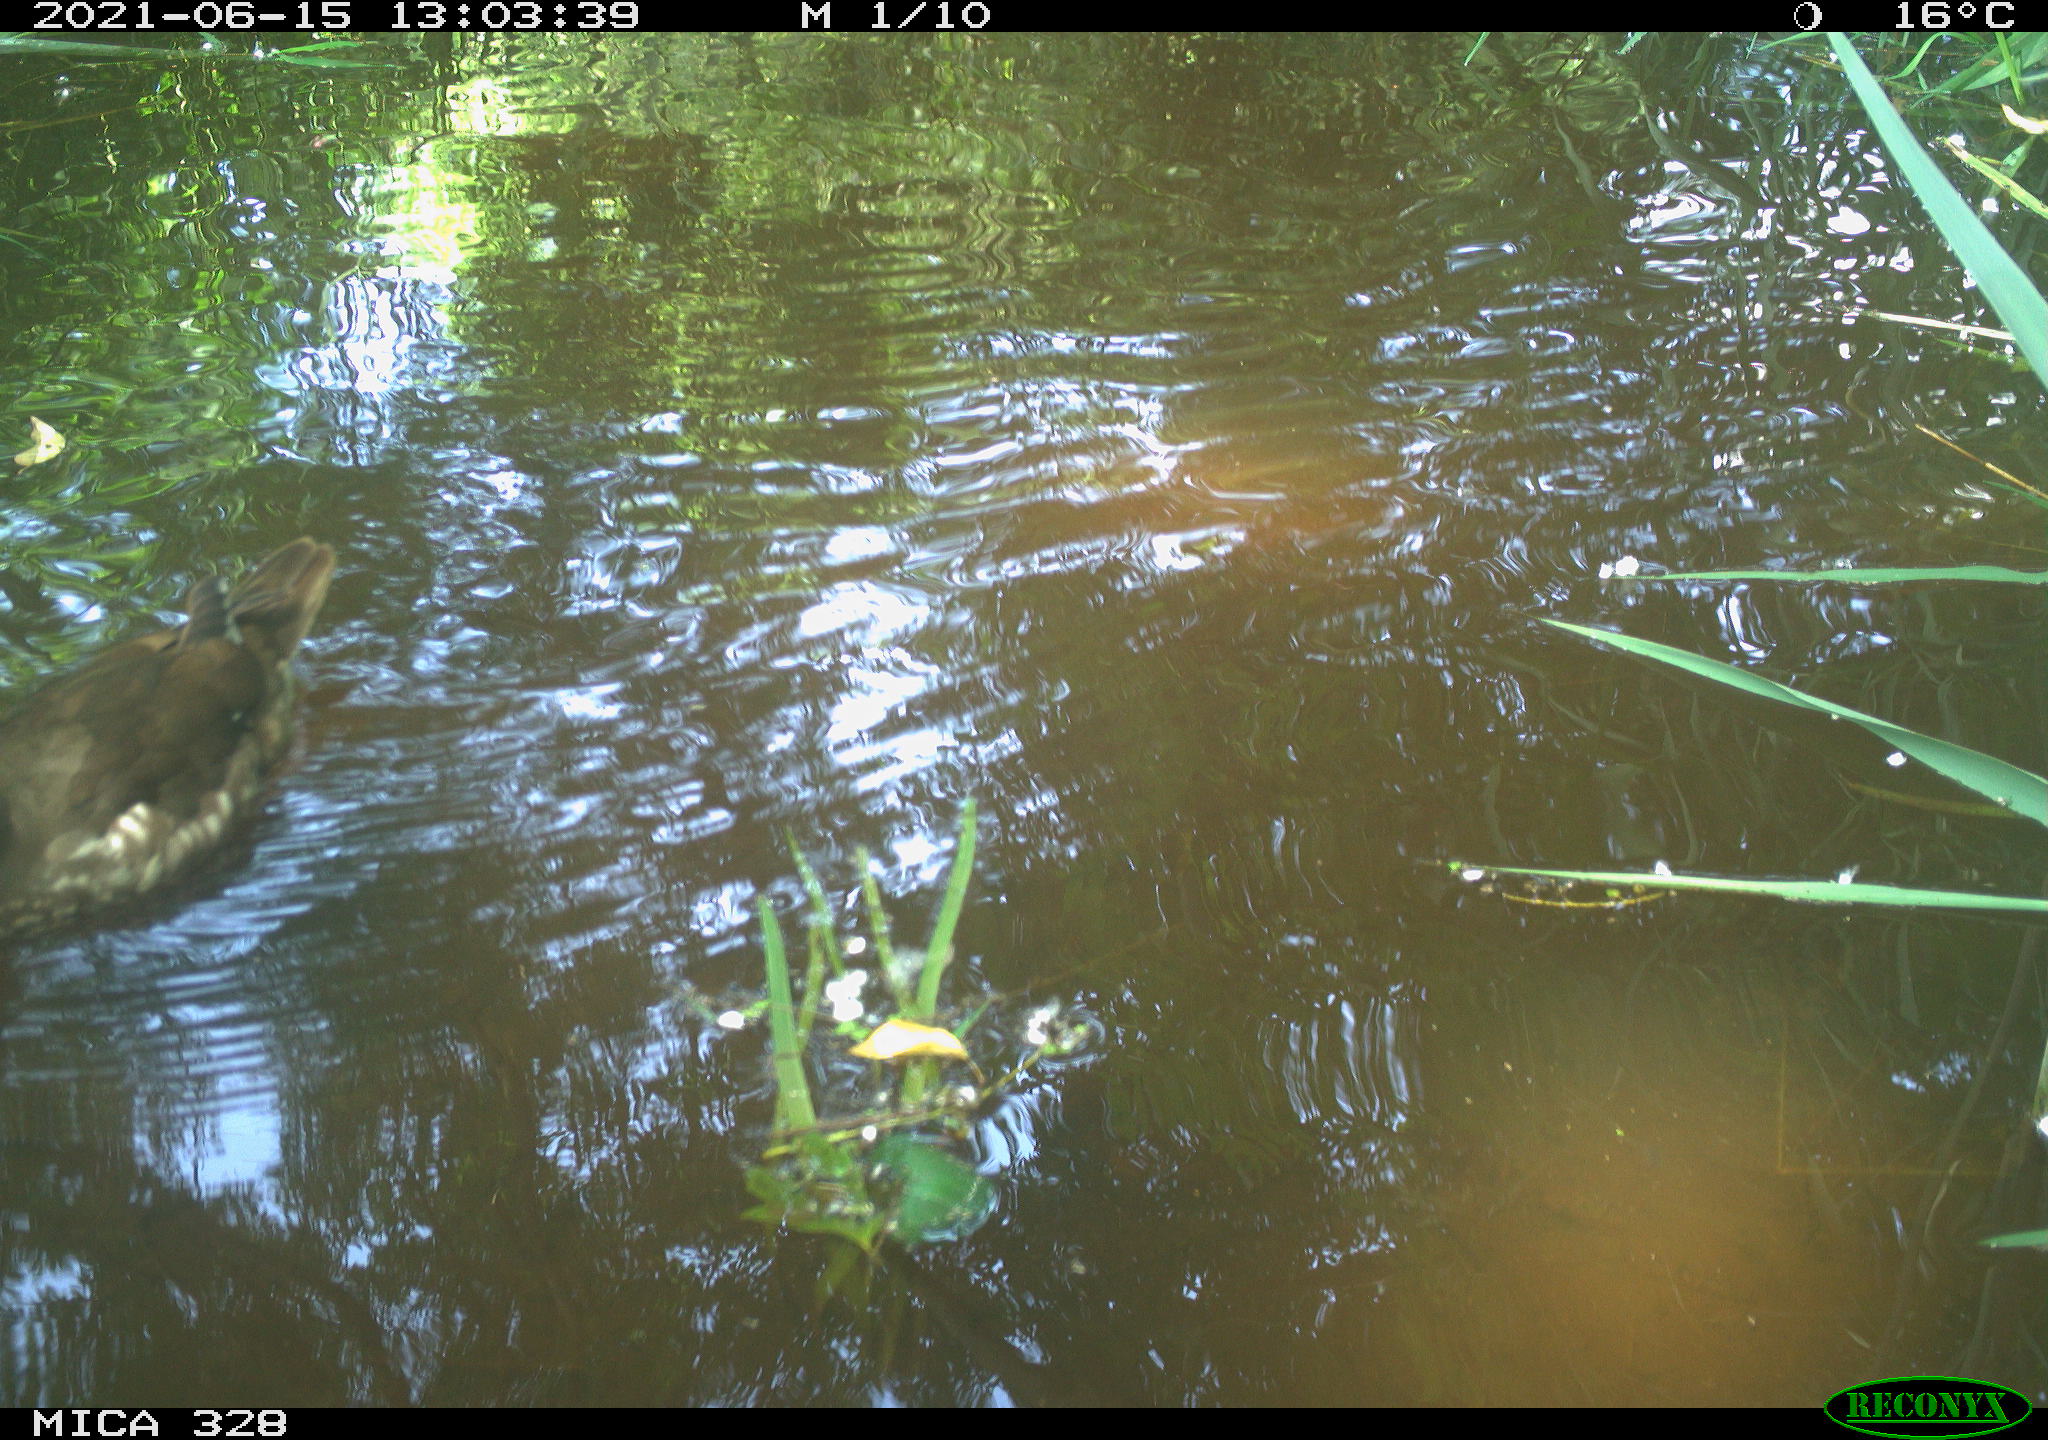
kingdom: Animalia
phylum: Chordata
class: Aves
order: Anseriformes
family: Anatidae
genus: Aix
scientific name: Aix galericulata
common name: Mandarin duck
